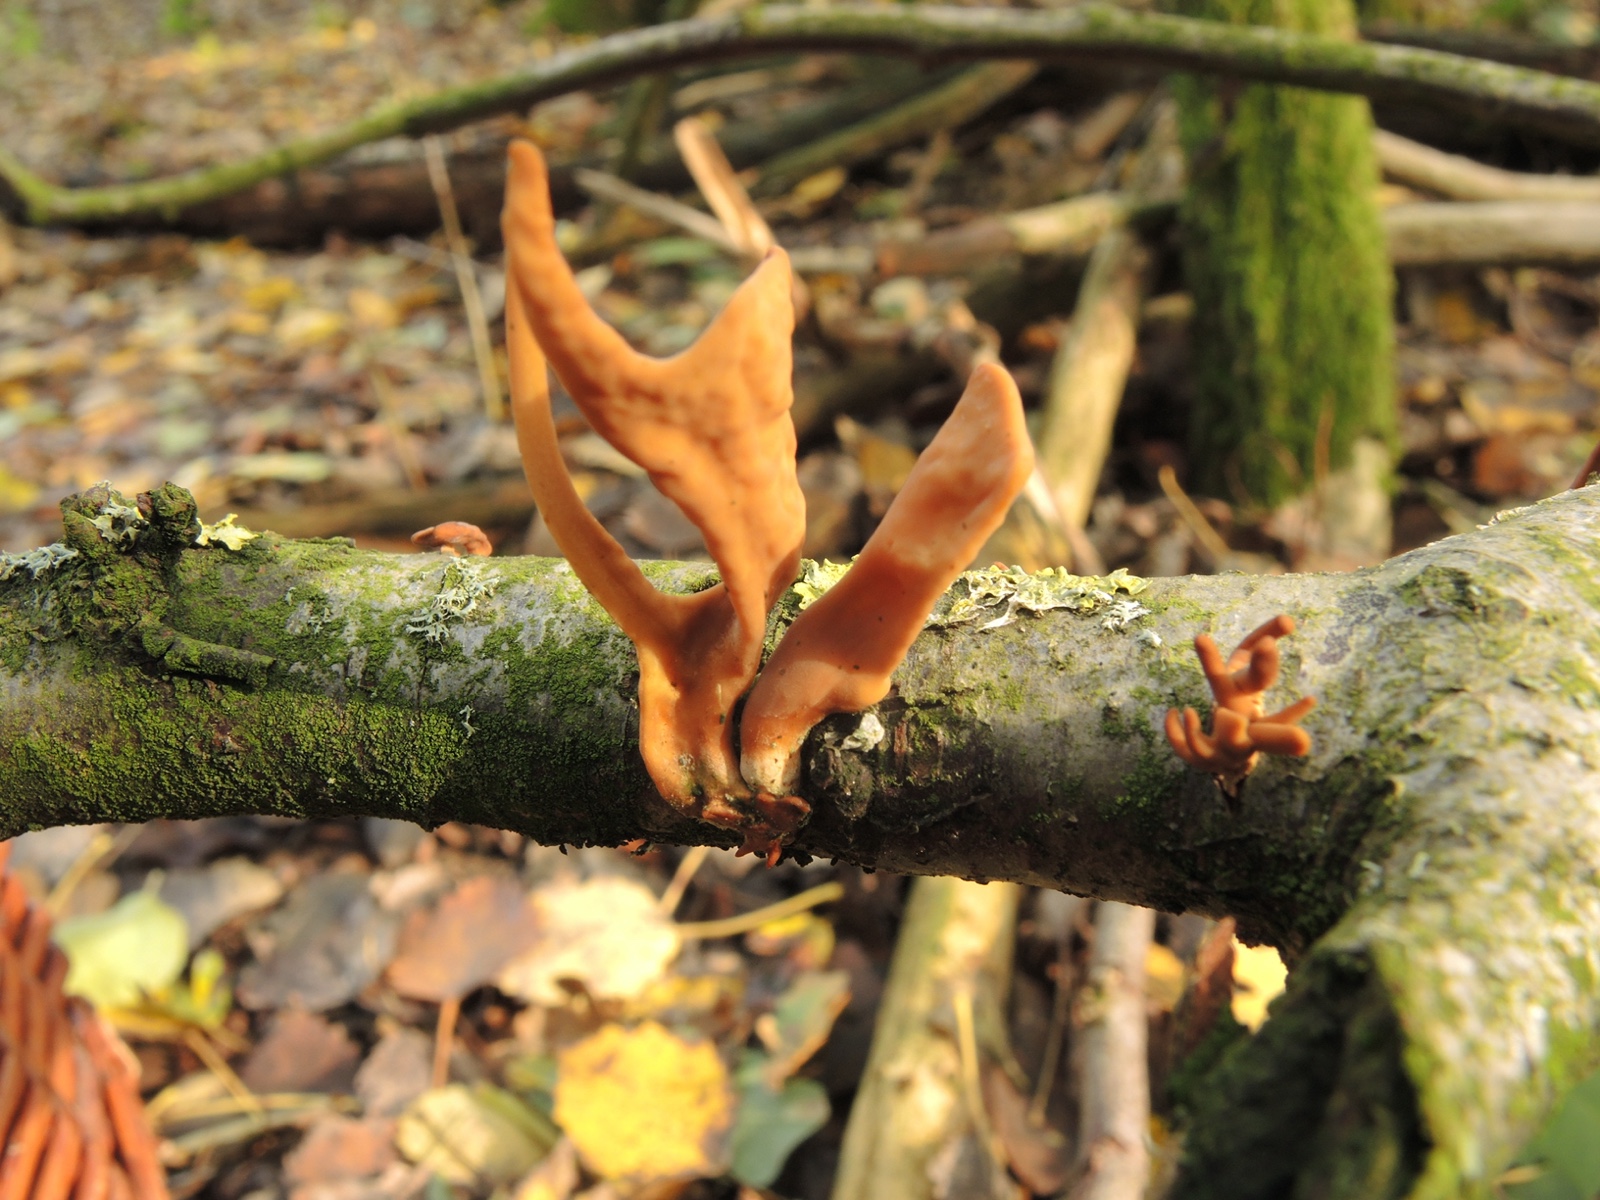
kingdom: Fungi
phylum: Basidiomycota
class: Agaricomycetes
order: Agaricales
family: Typhulaceae
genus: Typhula
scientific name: Typhula fistulosa
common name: pibet rørkølle
